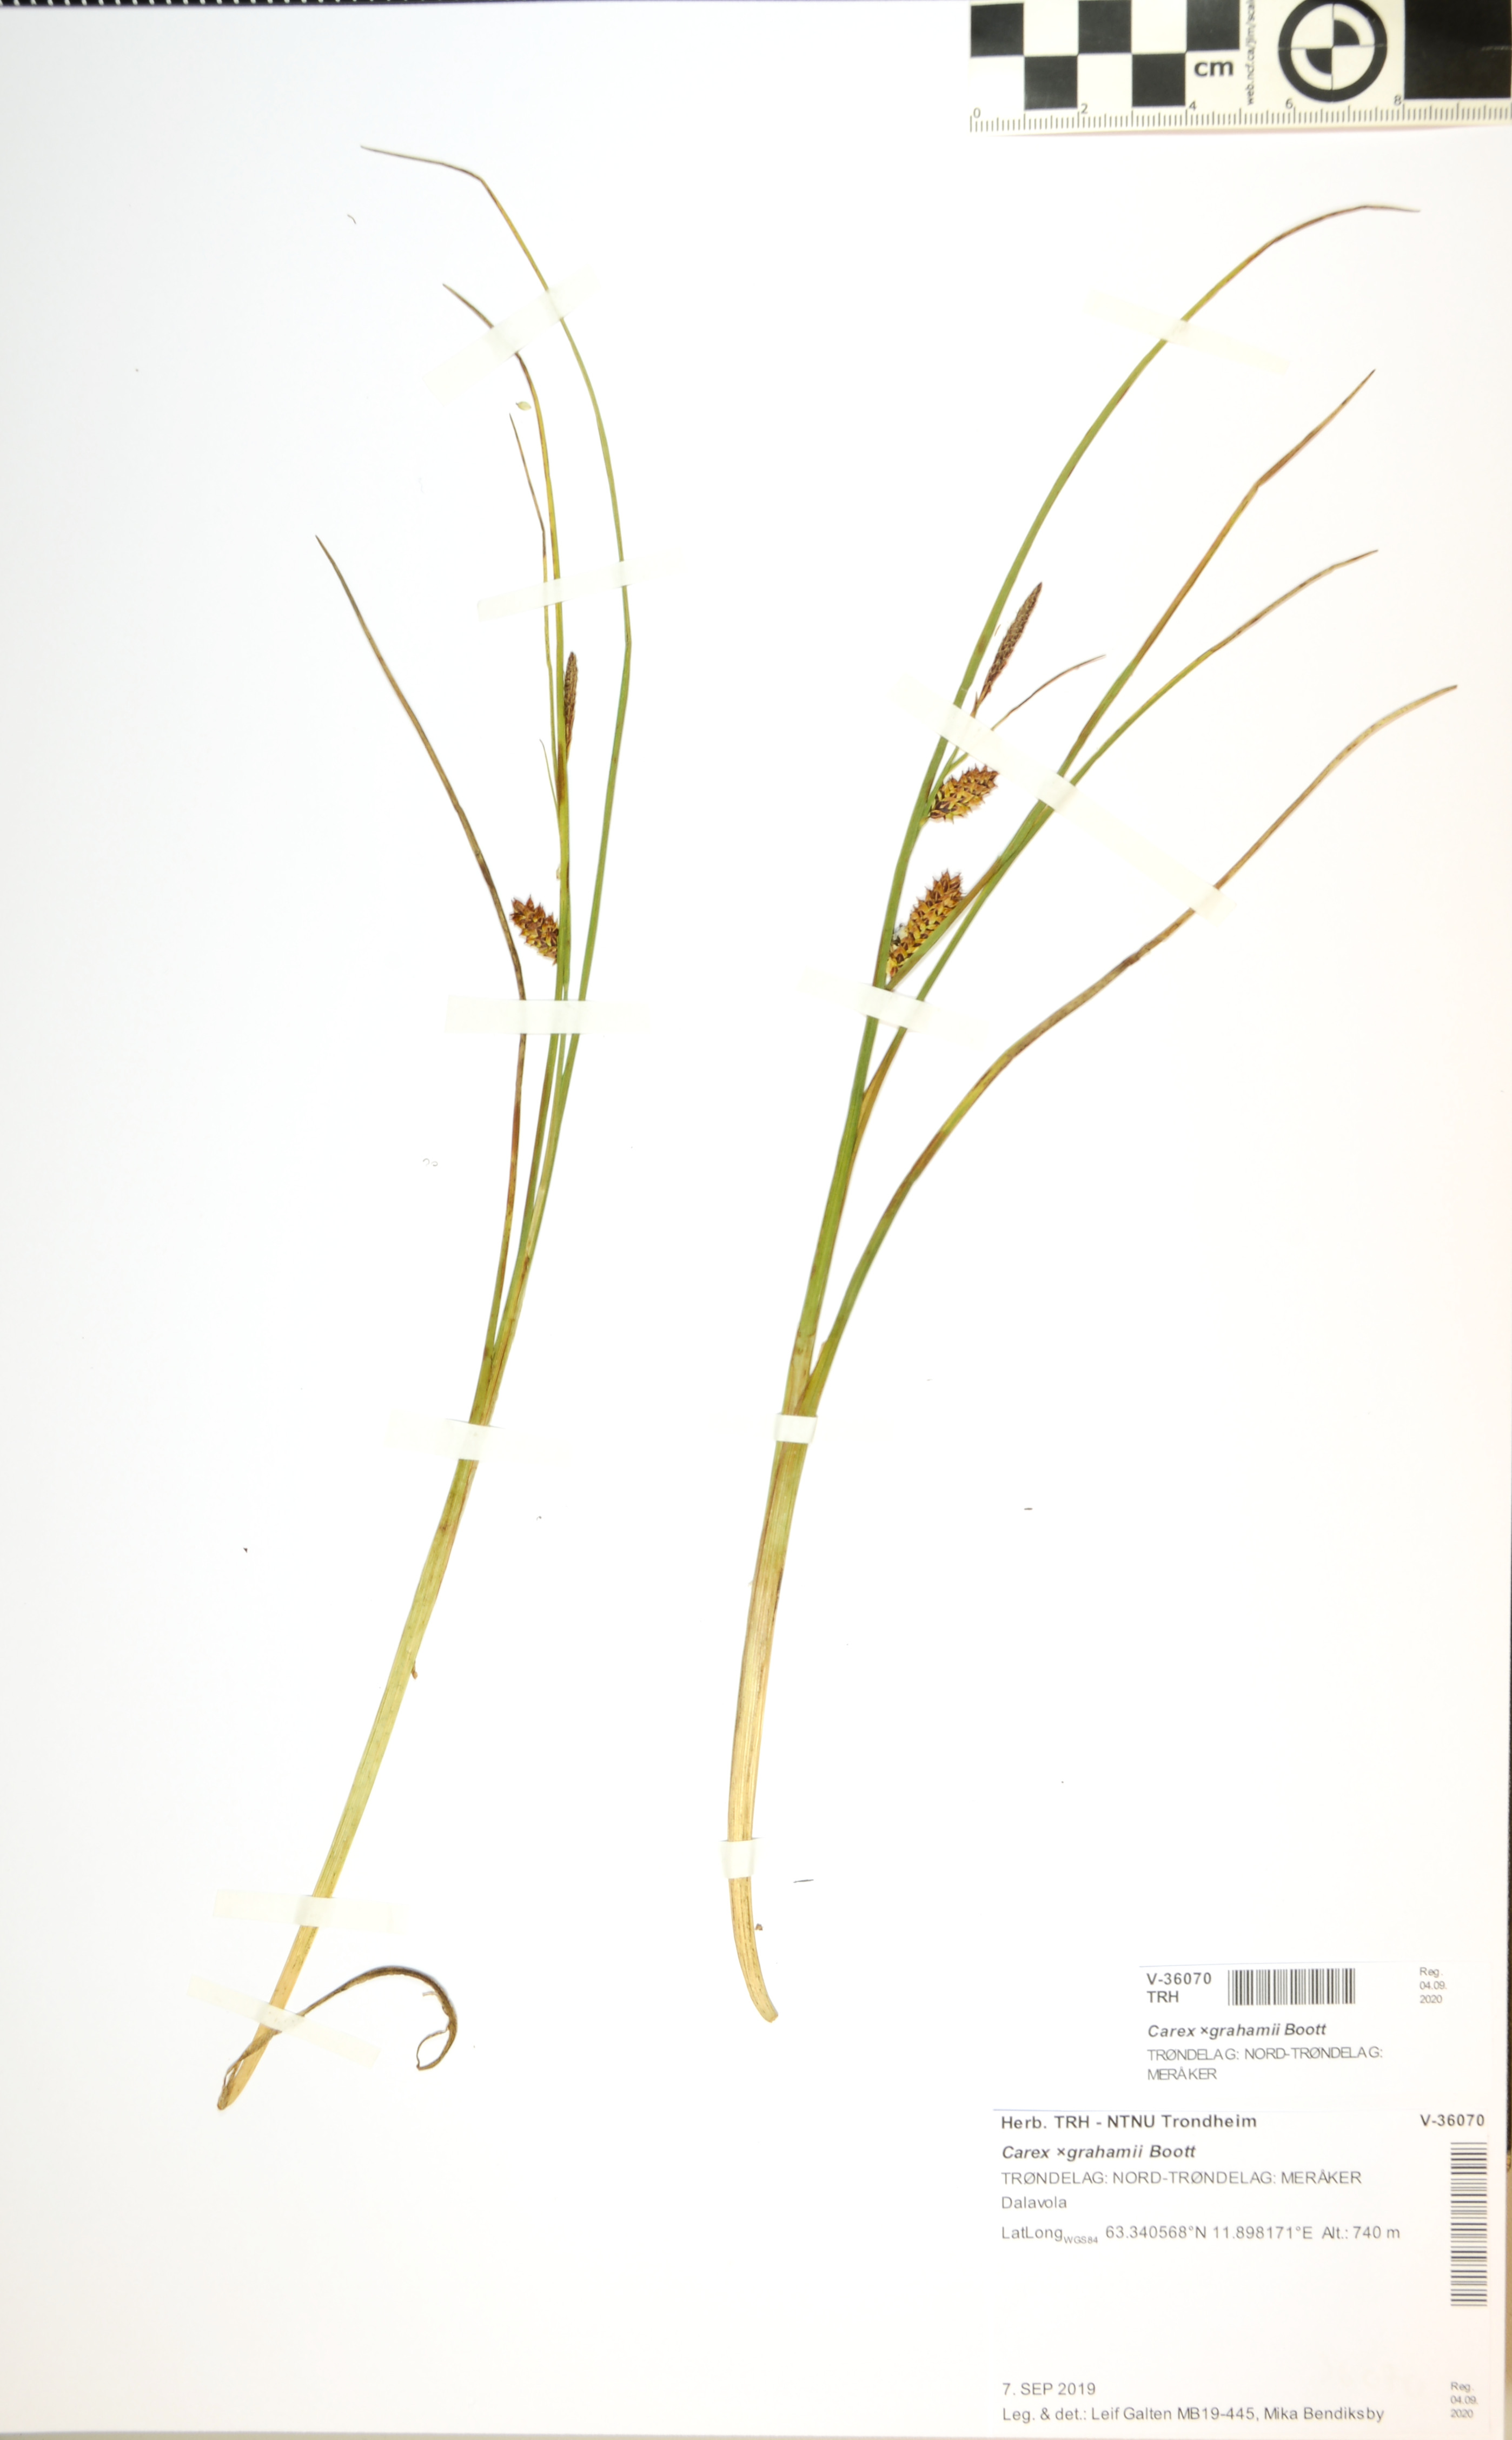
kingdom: Plantae
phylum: Tracheophyta
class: Liliopsida
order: Poales
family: Cyperaceae
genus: Carex
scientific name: Carex grahamii
